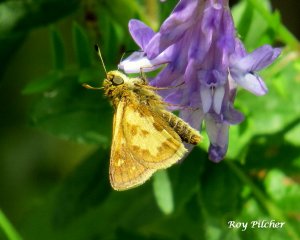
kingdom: Animalia
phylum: Arthropoda
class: Insecta
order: Lepidoptera
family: Hesperiidae
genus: Polites
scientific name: Polites coras
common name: Peck's Skipper
